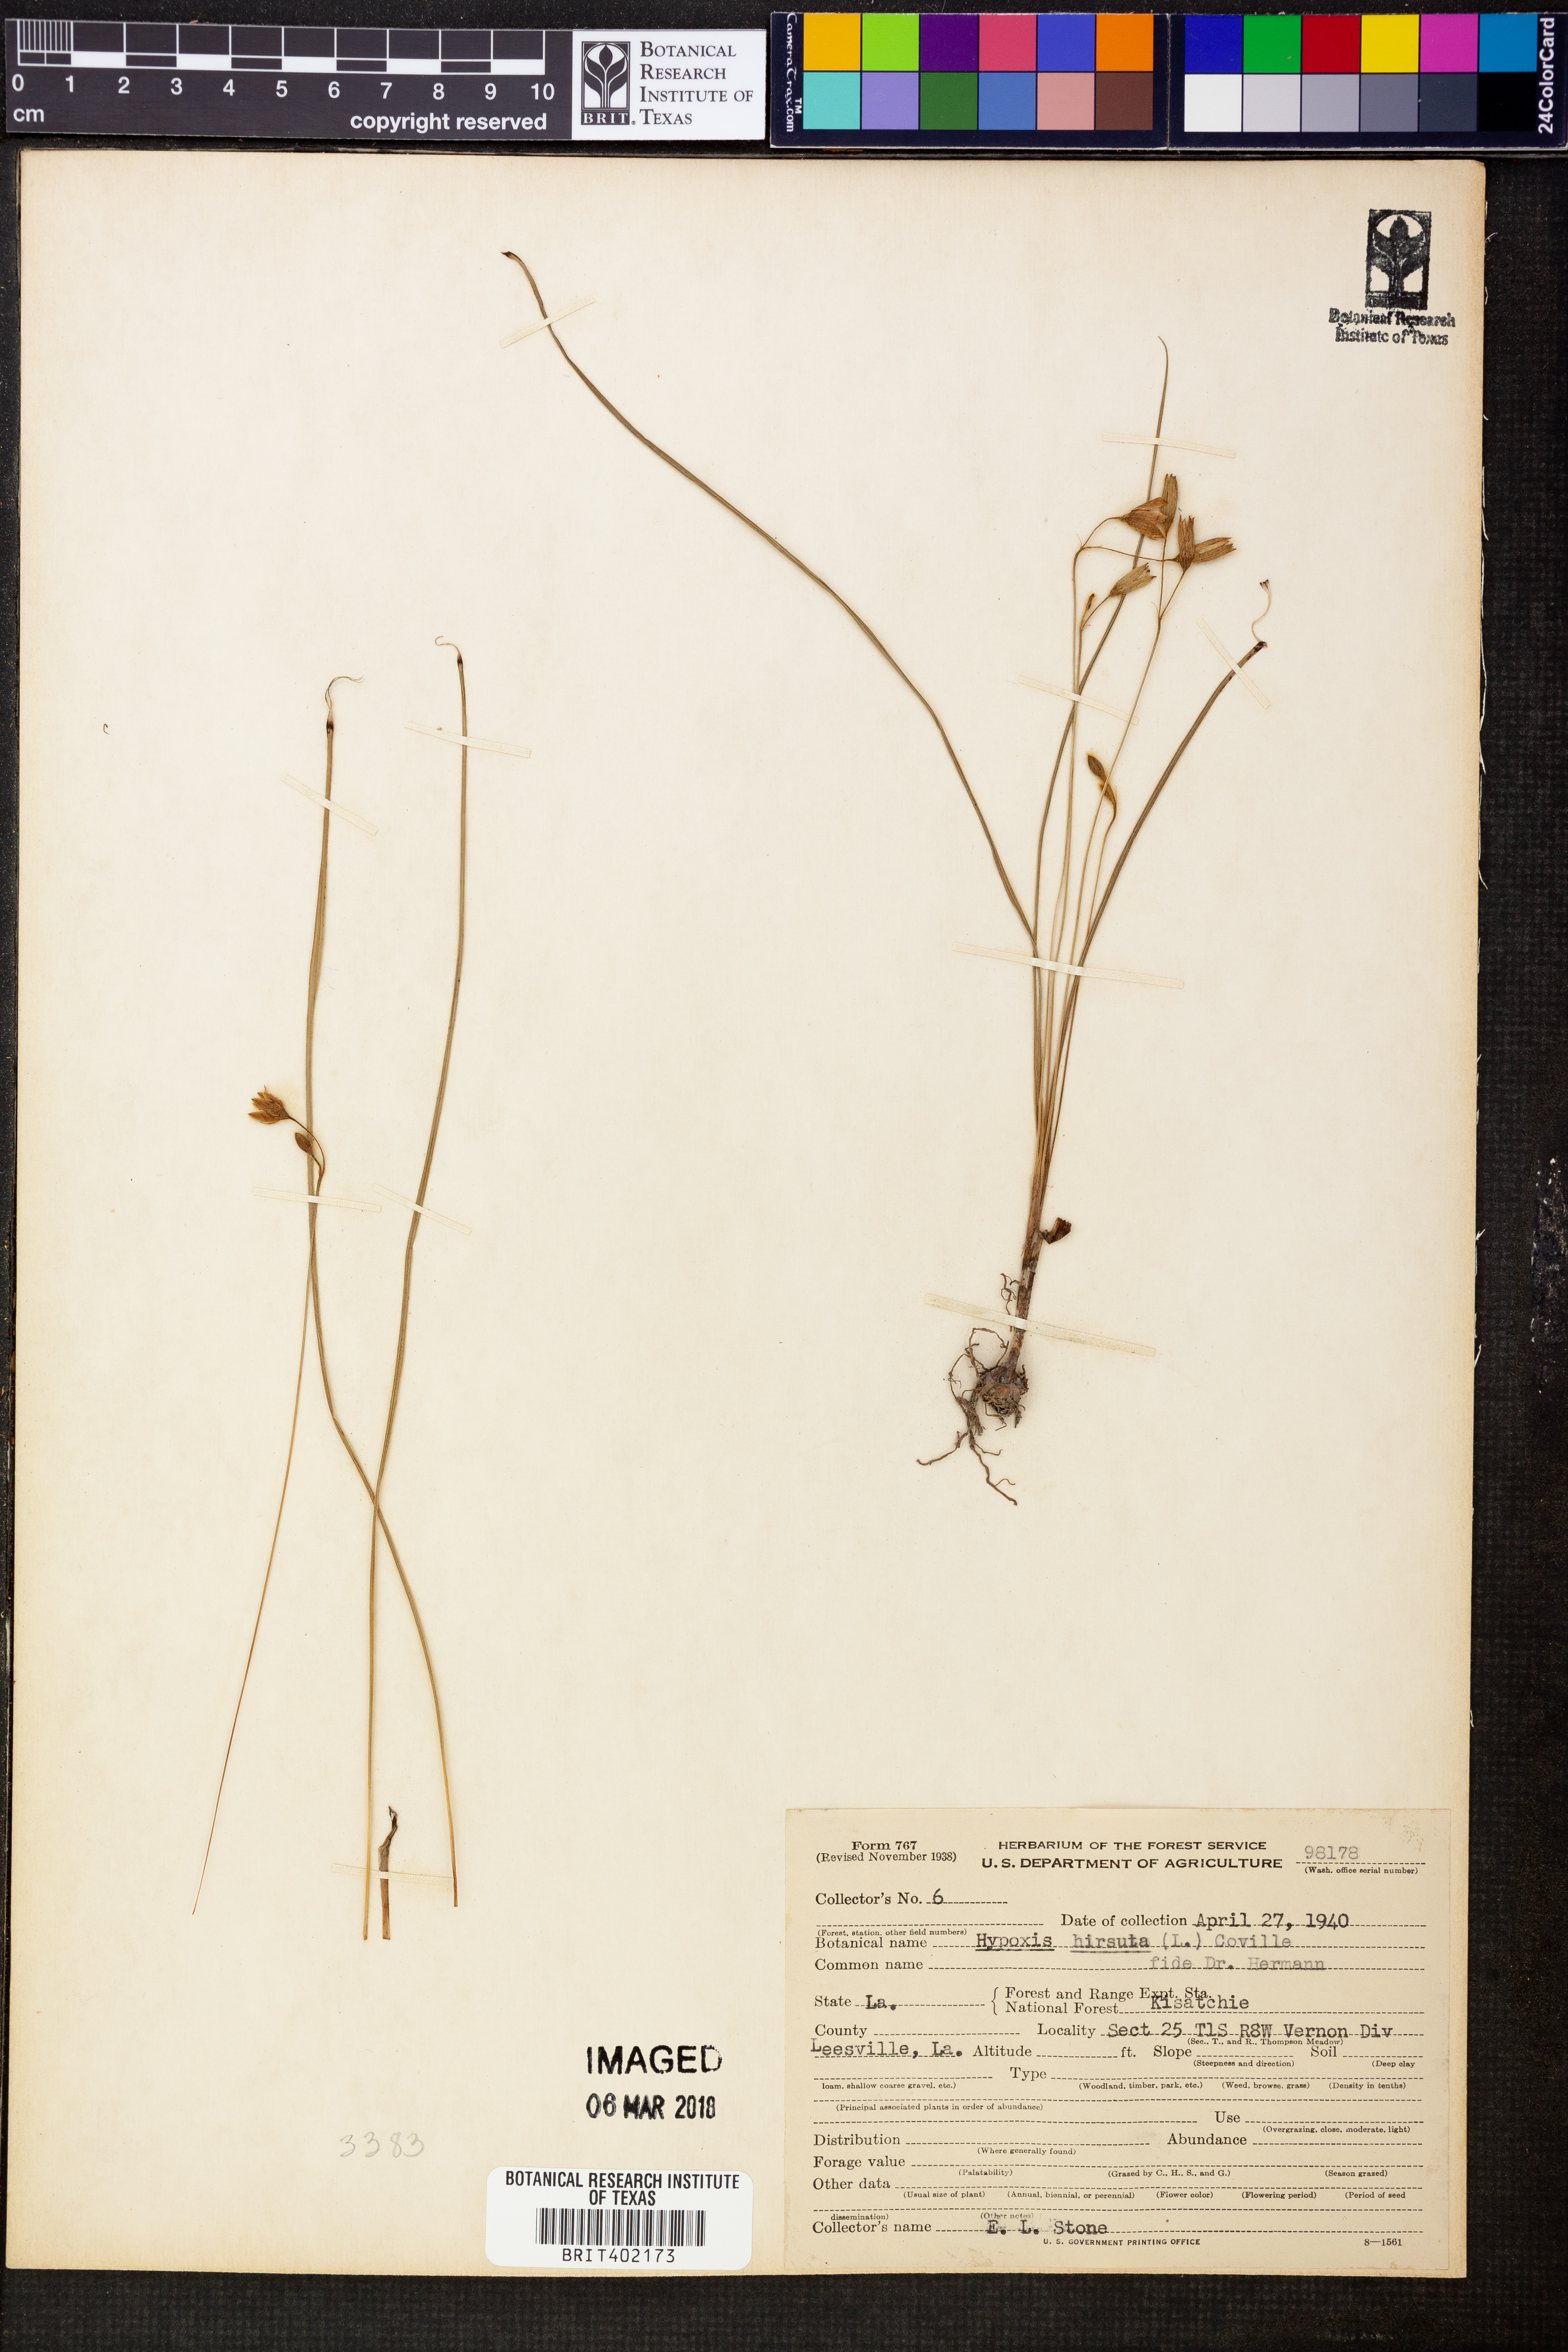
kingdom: Plantae
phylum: Tracheophyta
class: Liliopsida
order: Asparagales
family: Hypoxidaceae
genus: Hypoxis
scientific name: Hypoxis hirsuta
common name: Common goldstar
